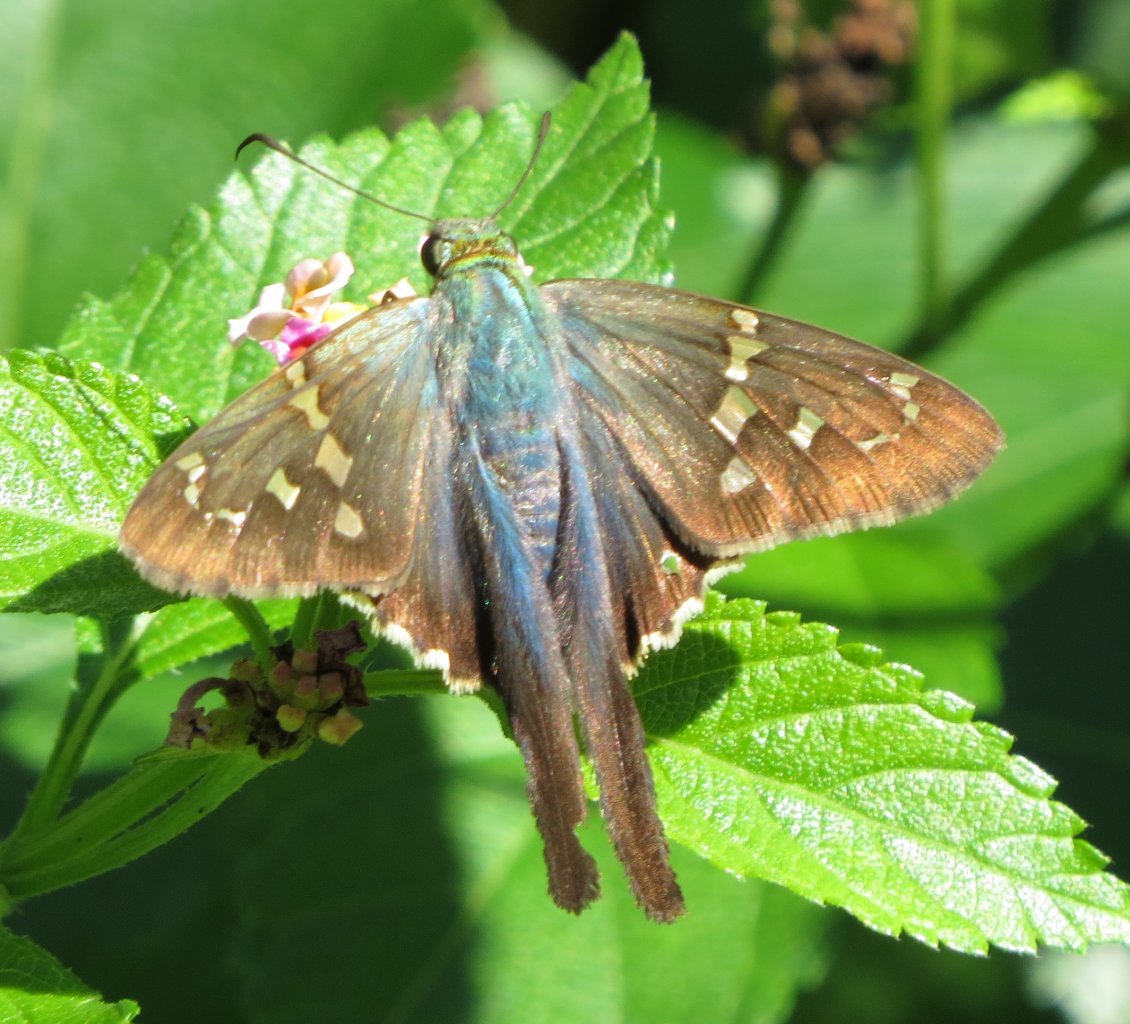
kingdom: Animalia
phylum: Arthropoda
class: Insecta
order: Lepidoptera
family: Hesperiidae
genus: Urbanus
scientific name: Urbanus proteus
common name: Long-tailed Skipper
